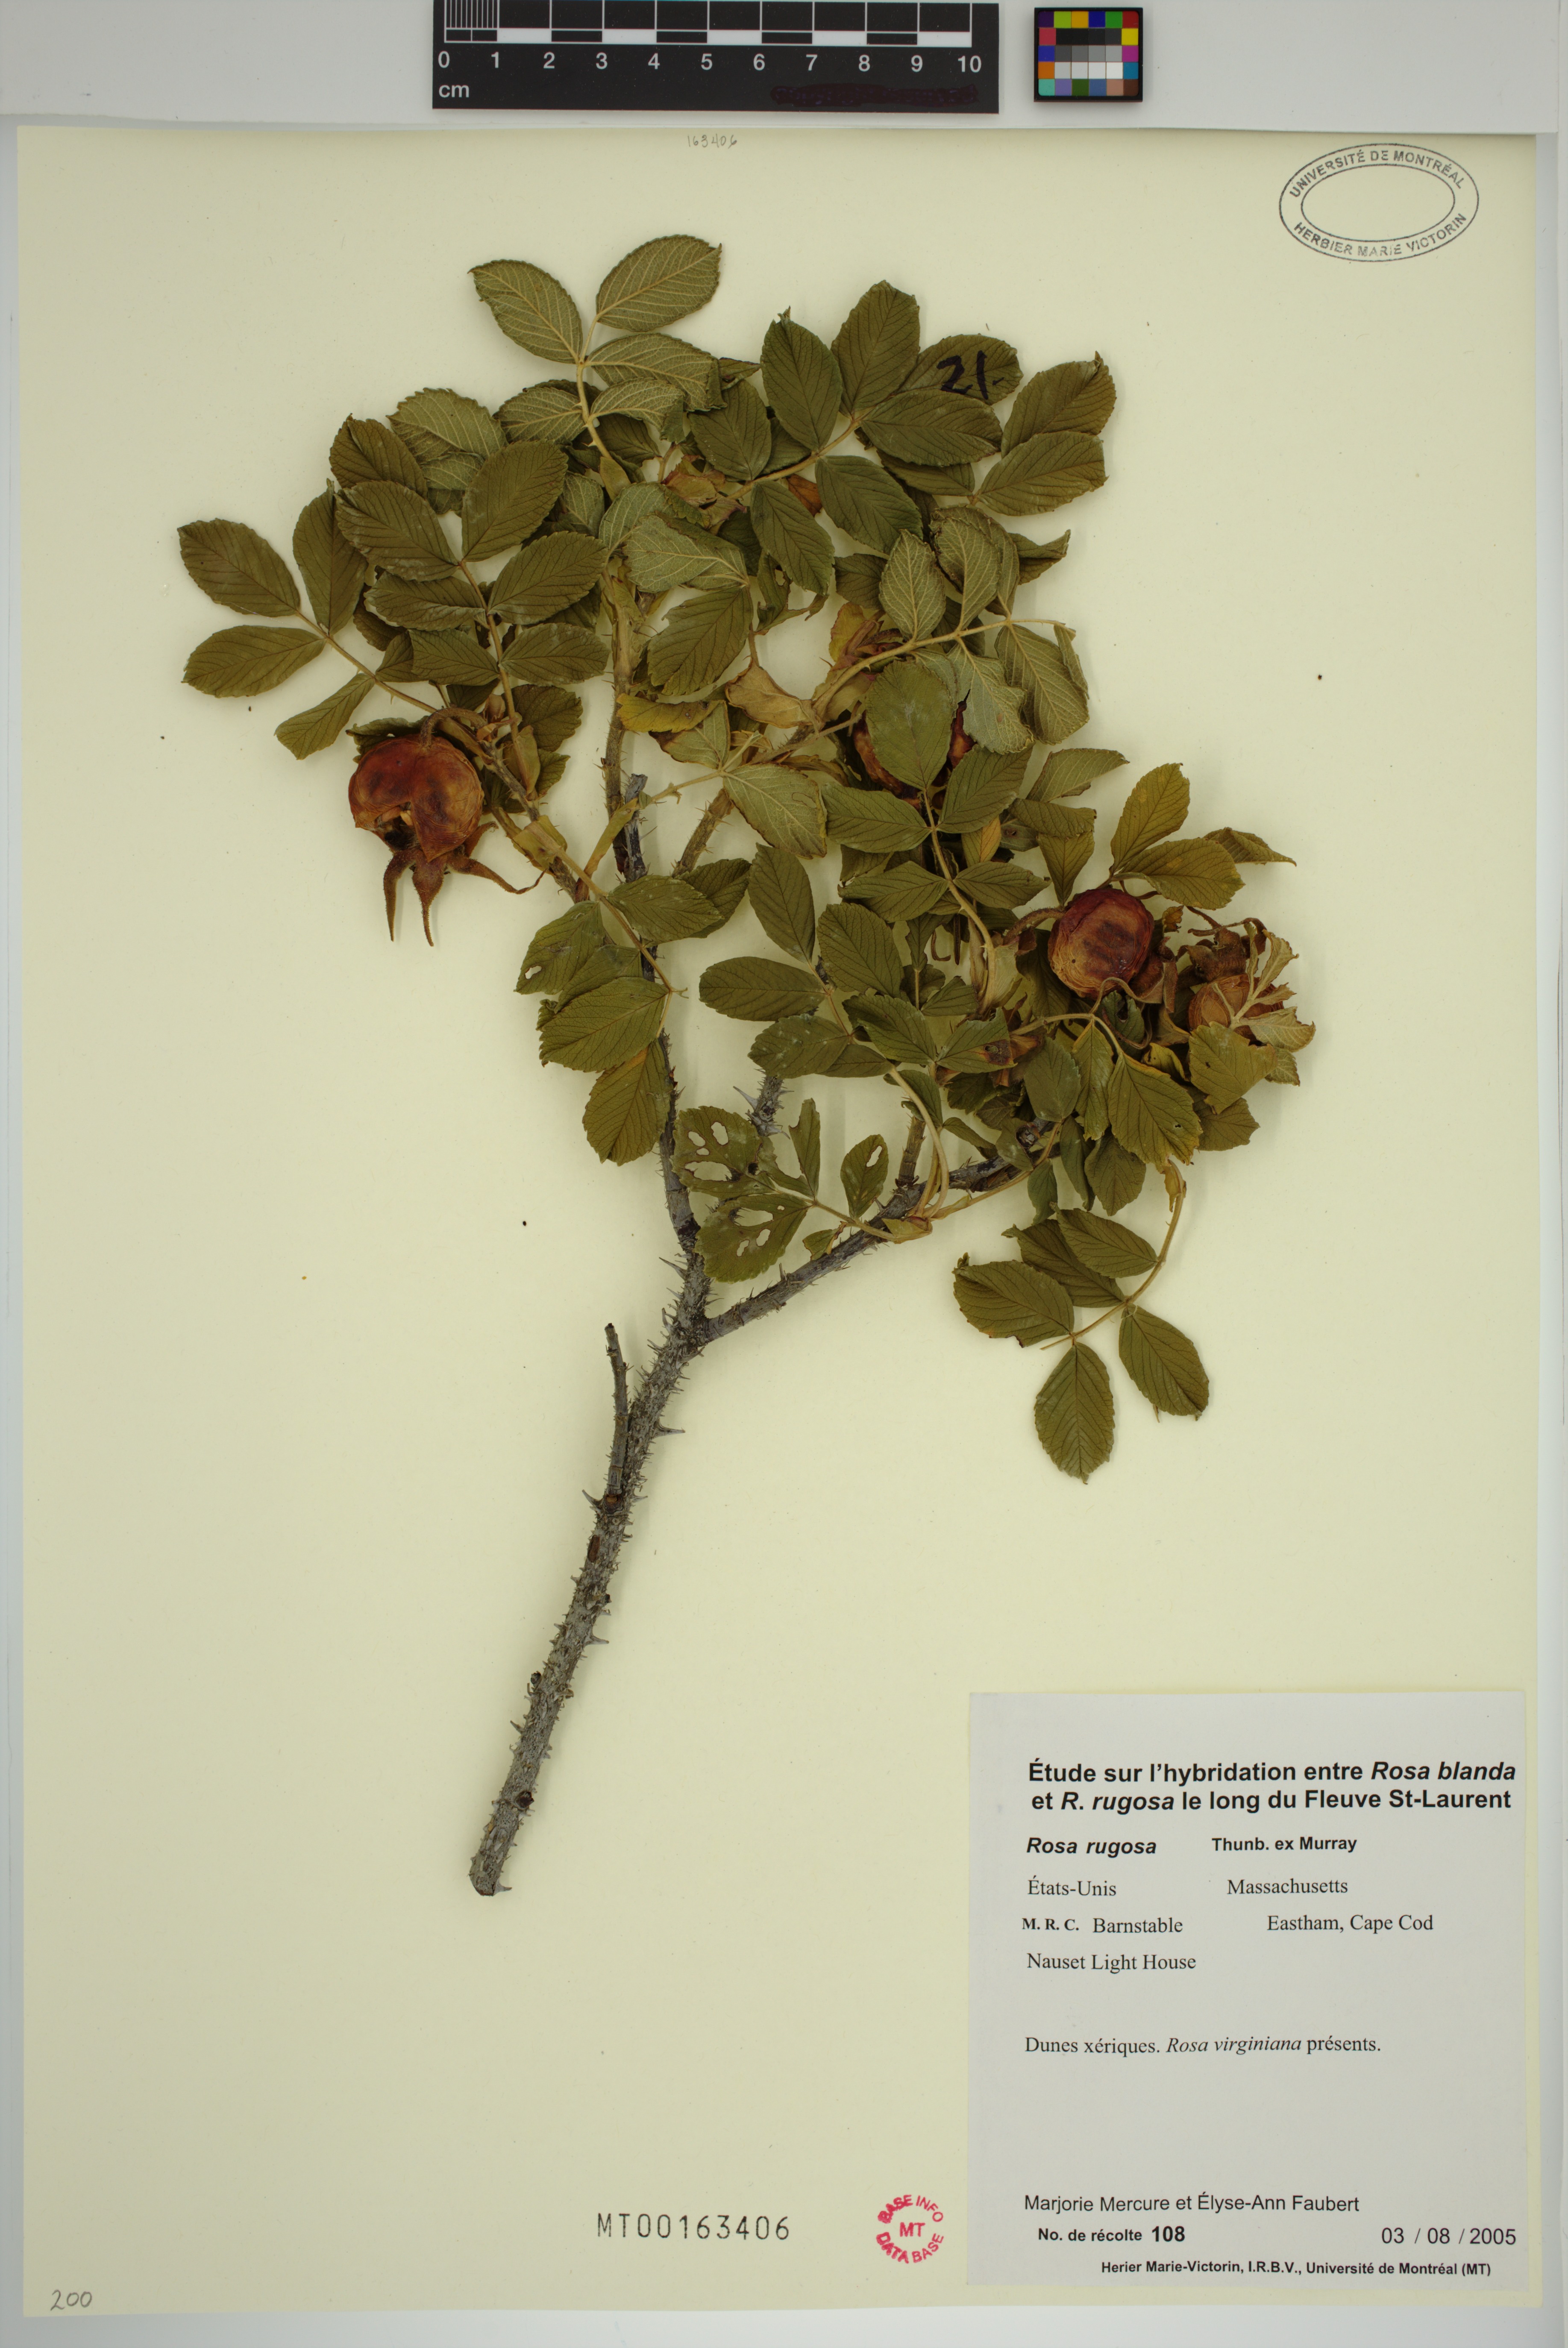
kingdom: Plantae
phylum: Tracheophyta
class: Magnoliopsida
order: Rosales
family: Rosaceae
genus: Rosa
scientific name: Rosa rugosa
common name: Japanese rose
